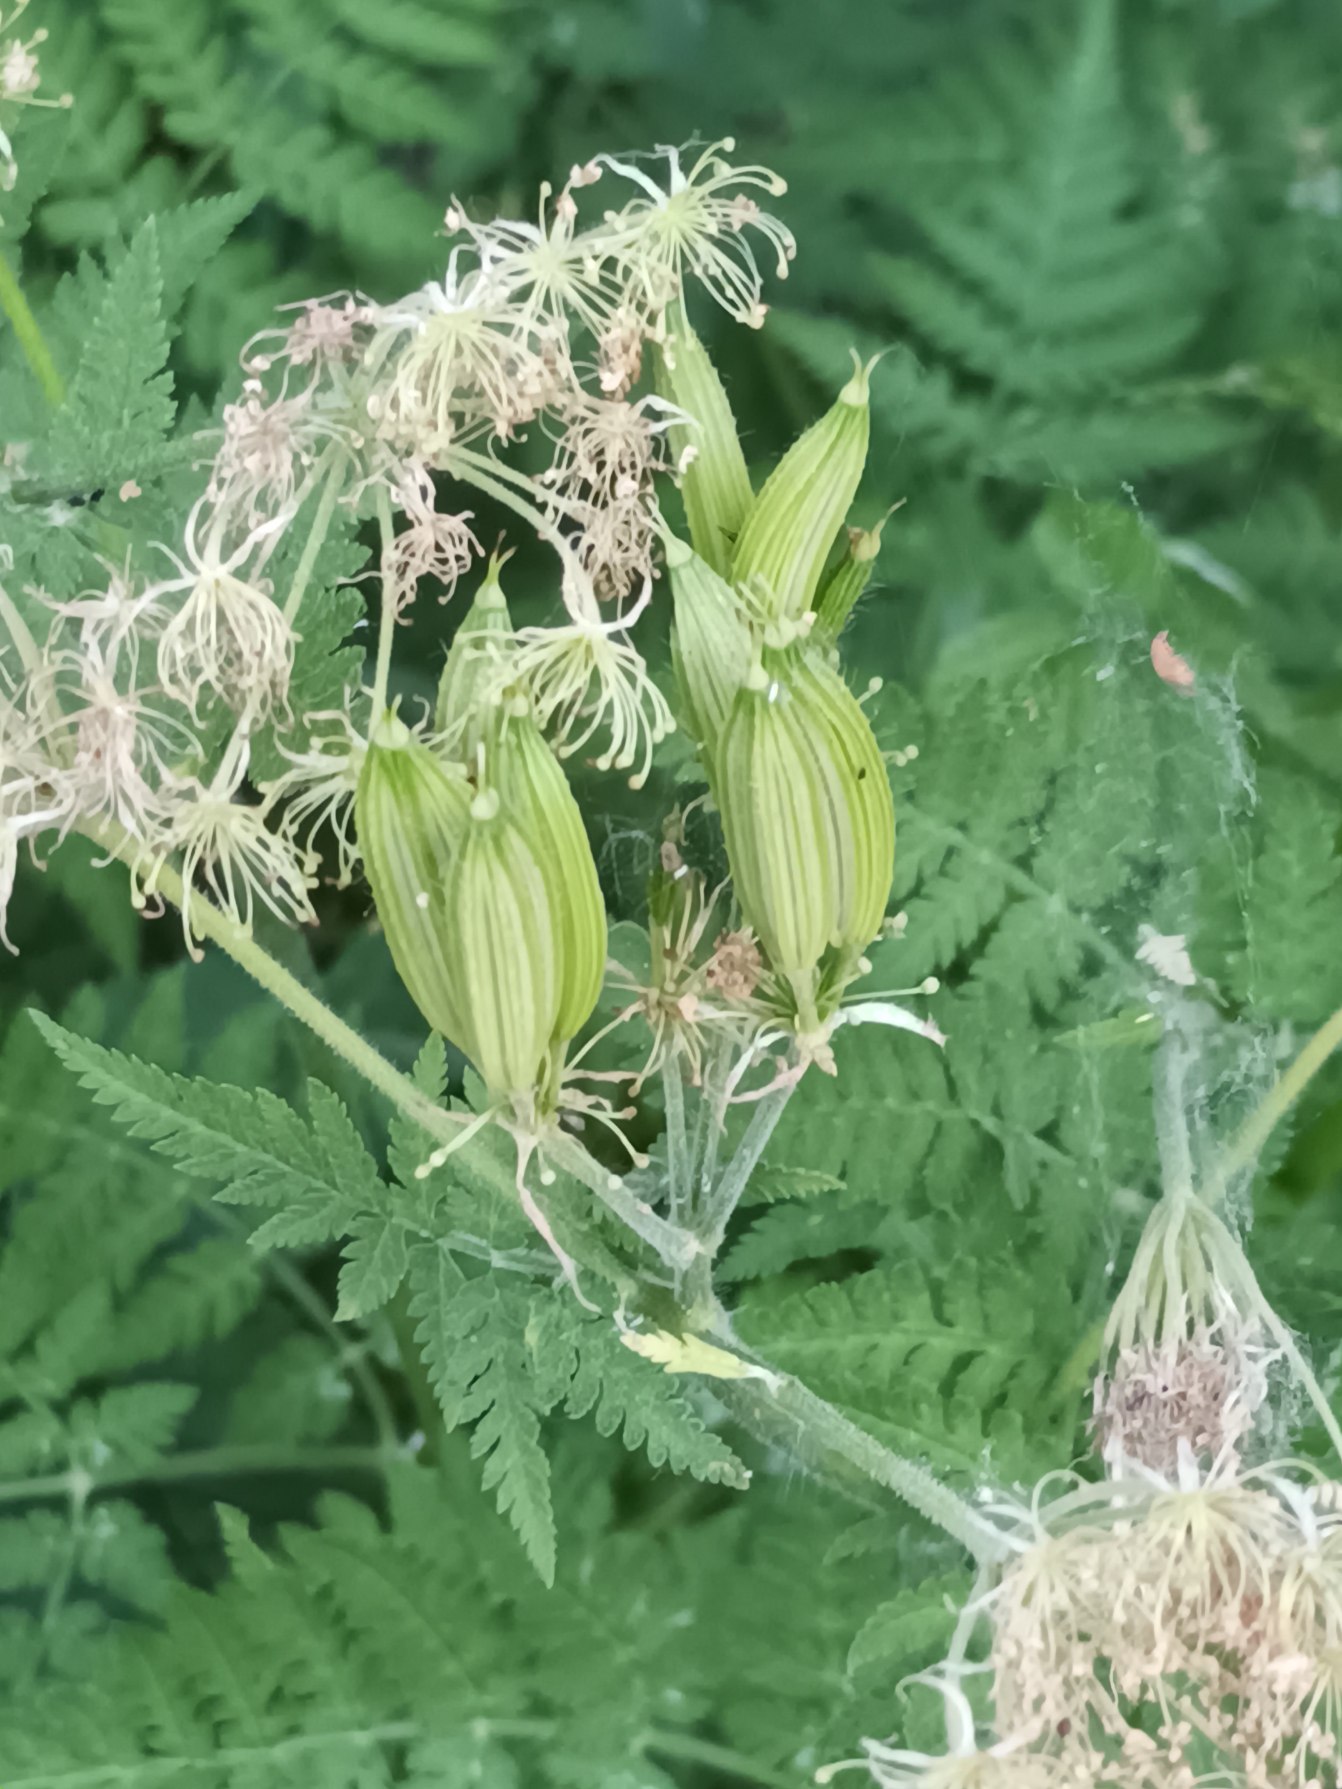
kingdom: Plantae
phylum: Tracheophyta
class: Magnoliopsida
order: Apiales
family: Apiaceae
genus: Myrrhis
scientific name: Myrrhis odorata
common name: Sødskærm
